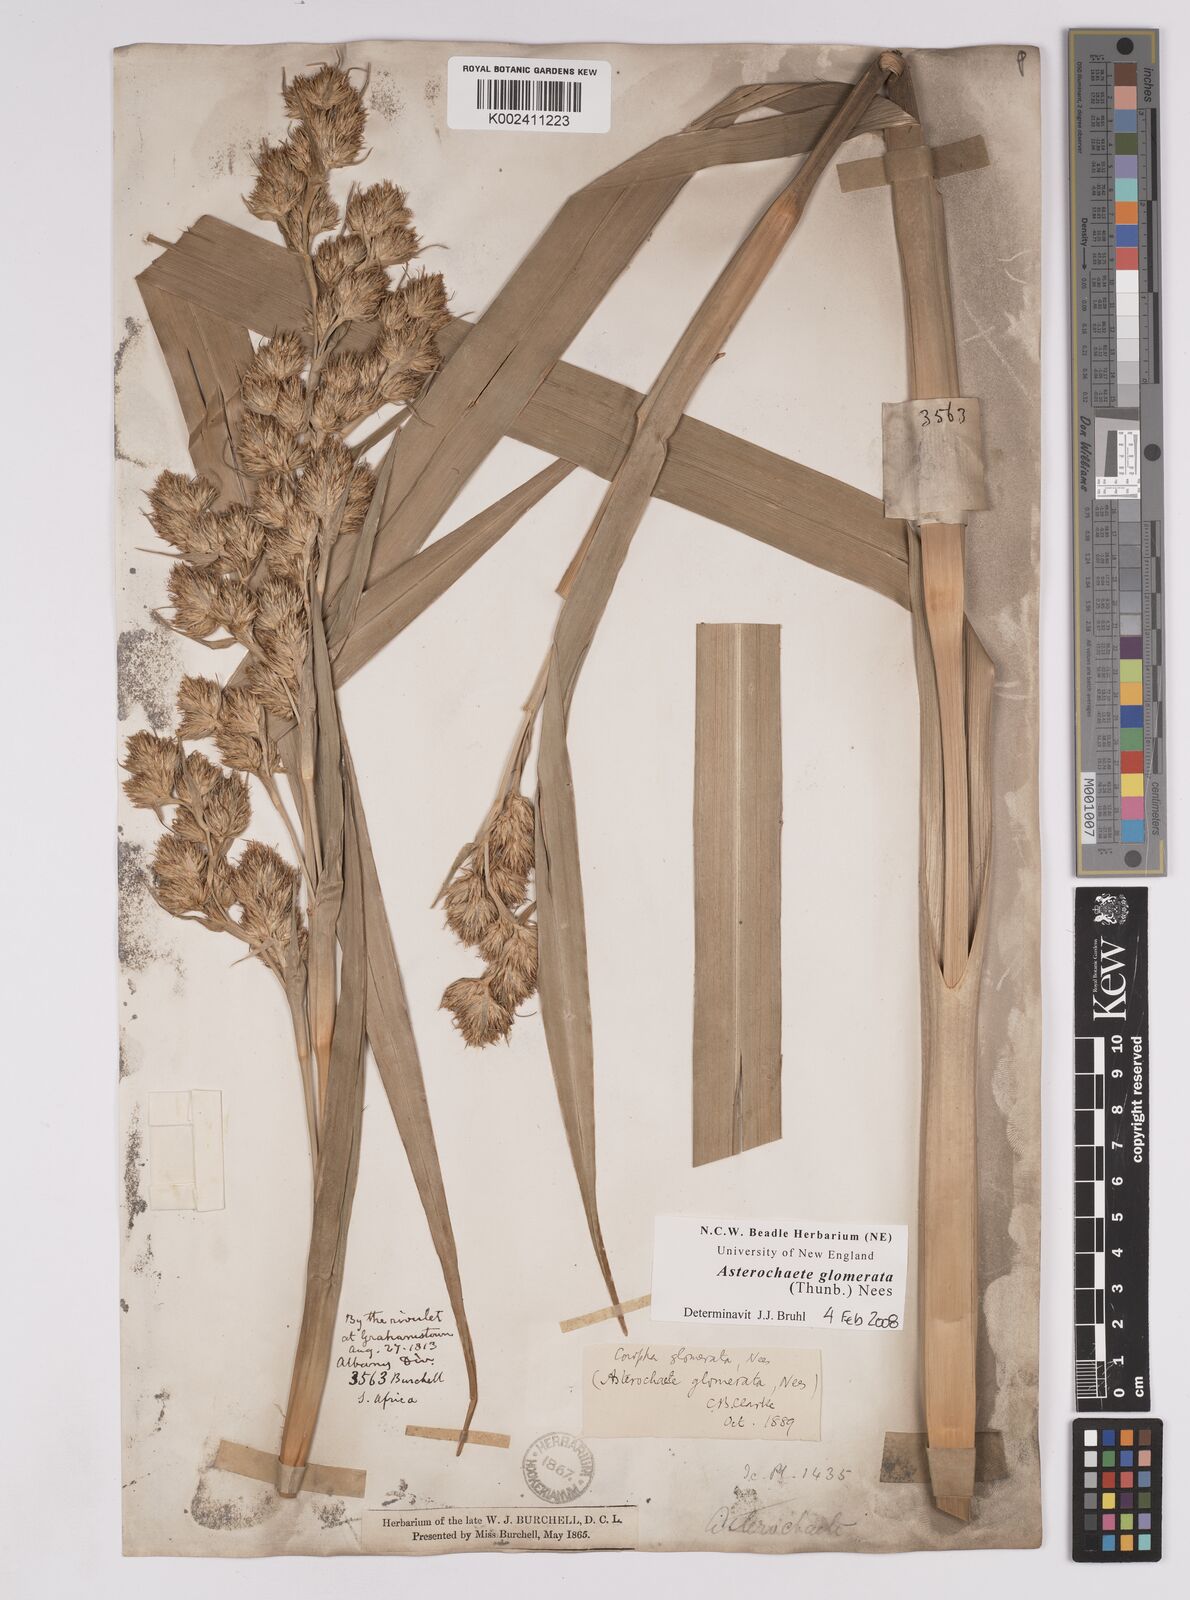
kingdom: Plantae
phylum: Tracheophyta
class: Liliopsida
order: Poales
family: Cyperaceae
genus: Carpha
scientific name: Carpha glomerata
